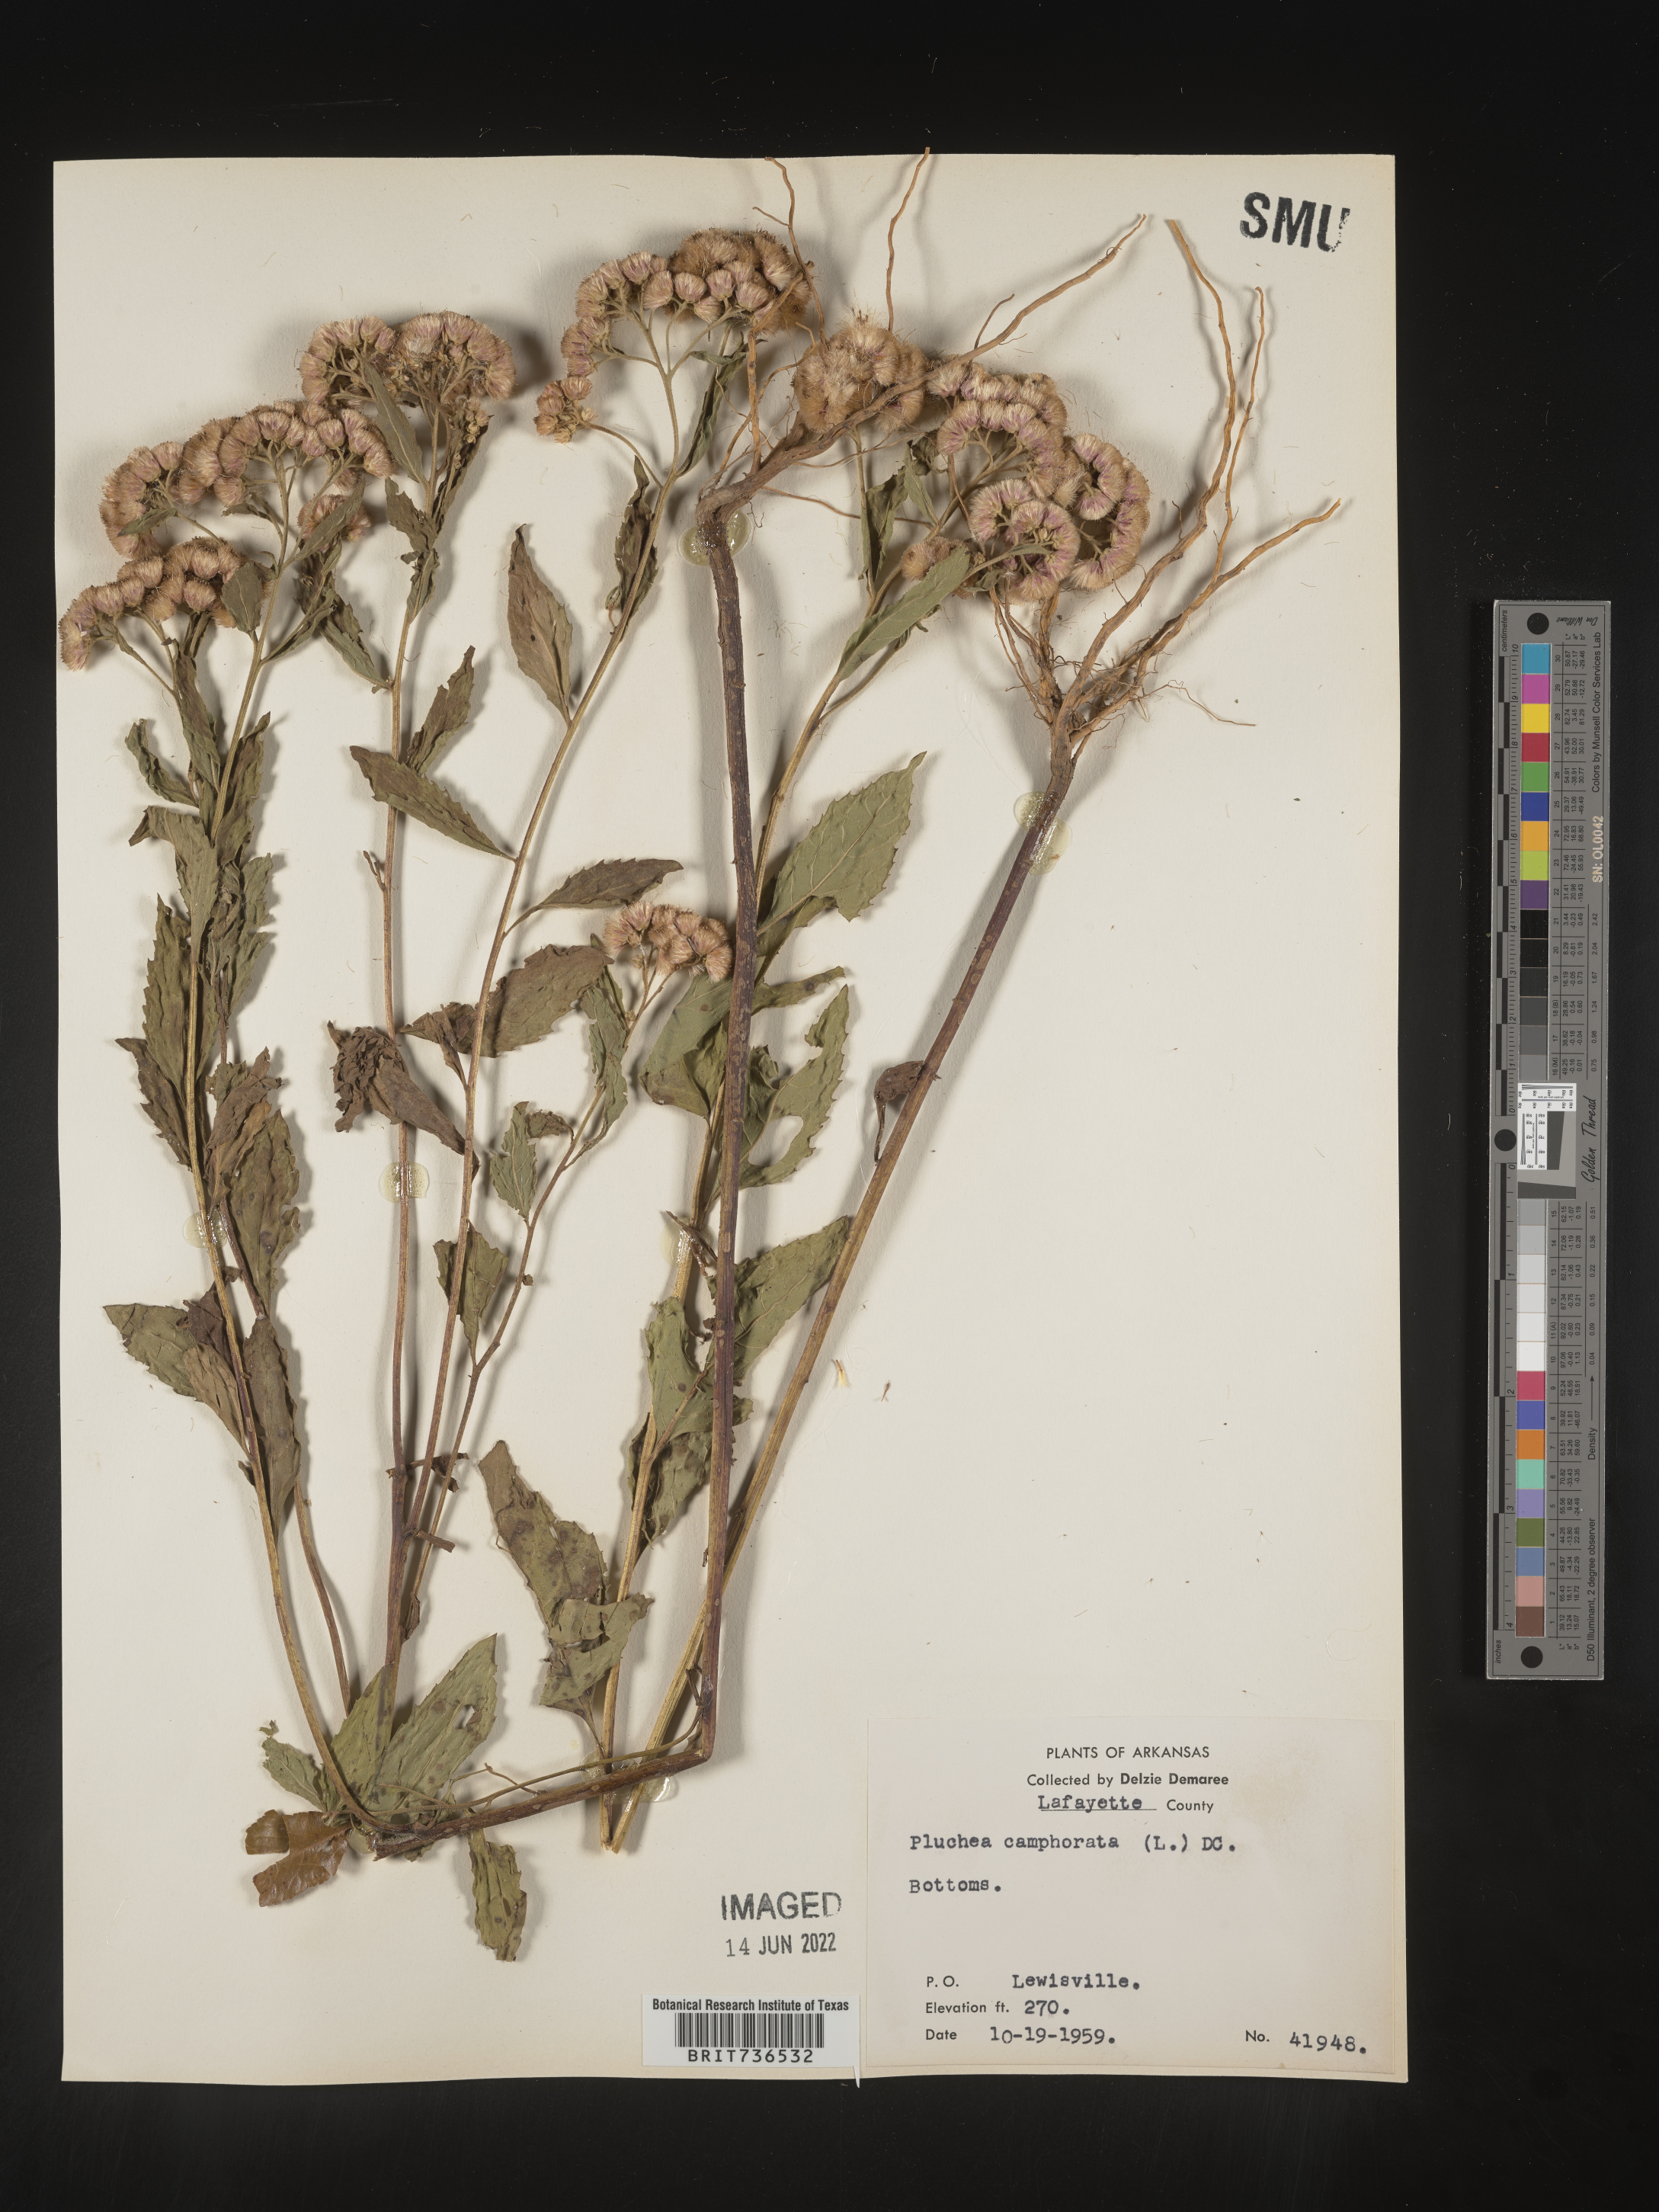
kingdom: Plantae
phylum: Tracheophyta
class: Magnoliopsida
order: Asterales
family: Asteraceae
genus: Pluchea
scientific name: Pluchea camphorata
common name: Camphor pluchea
